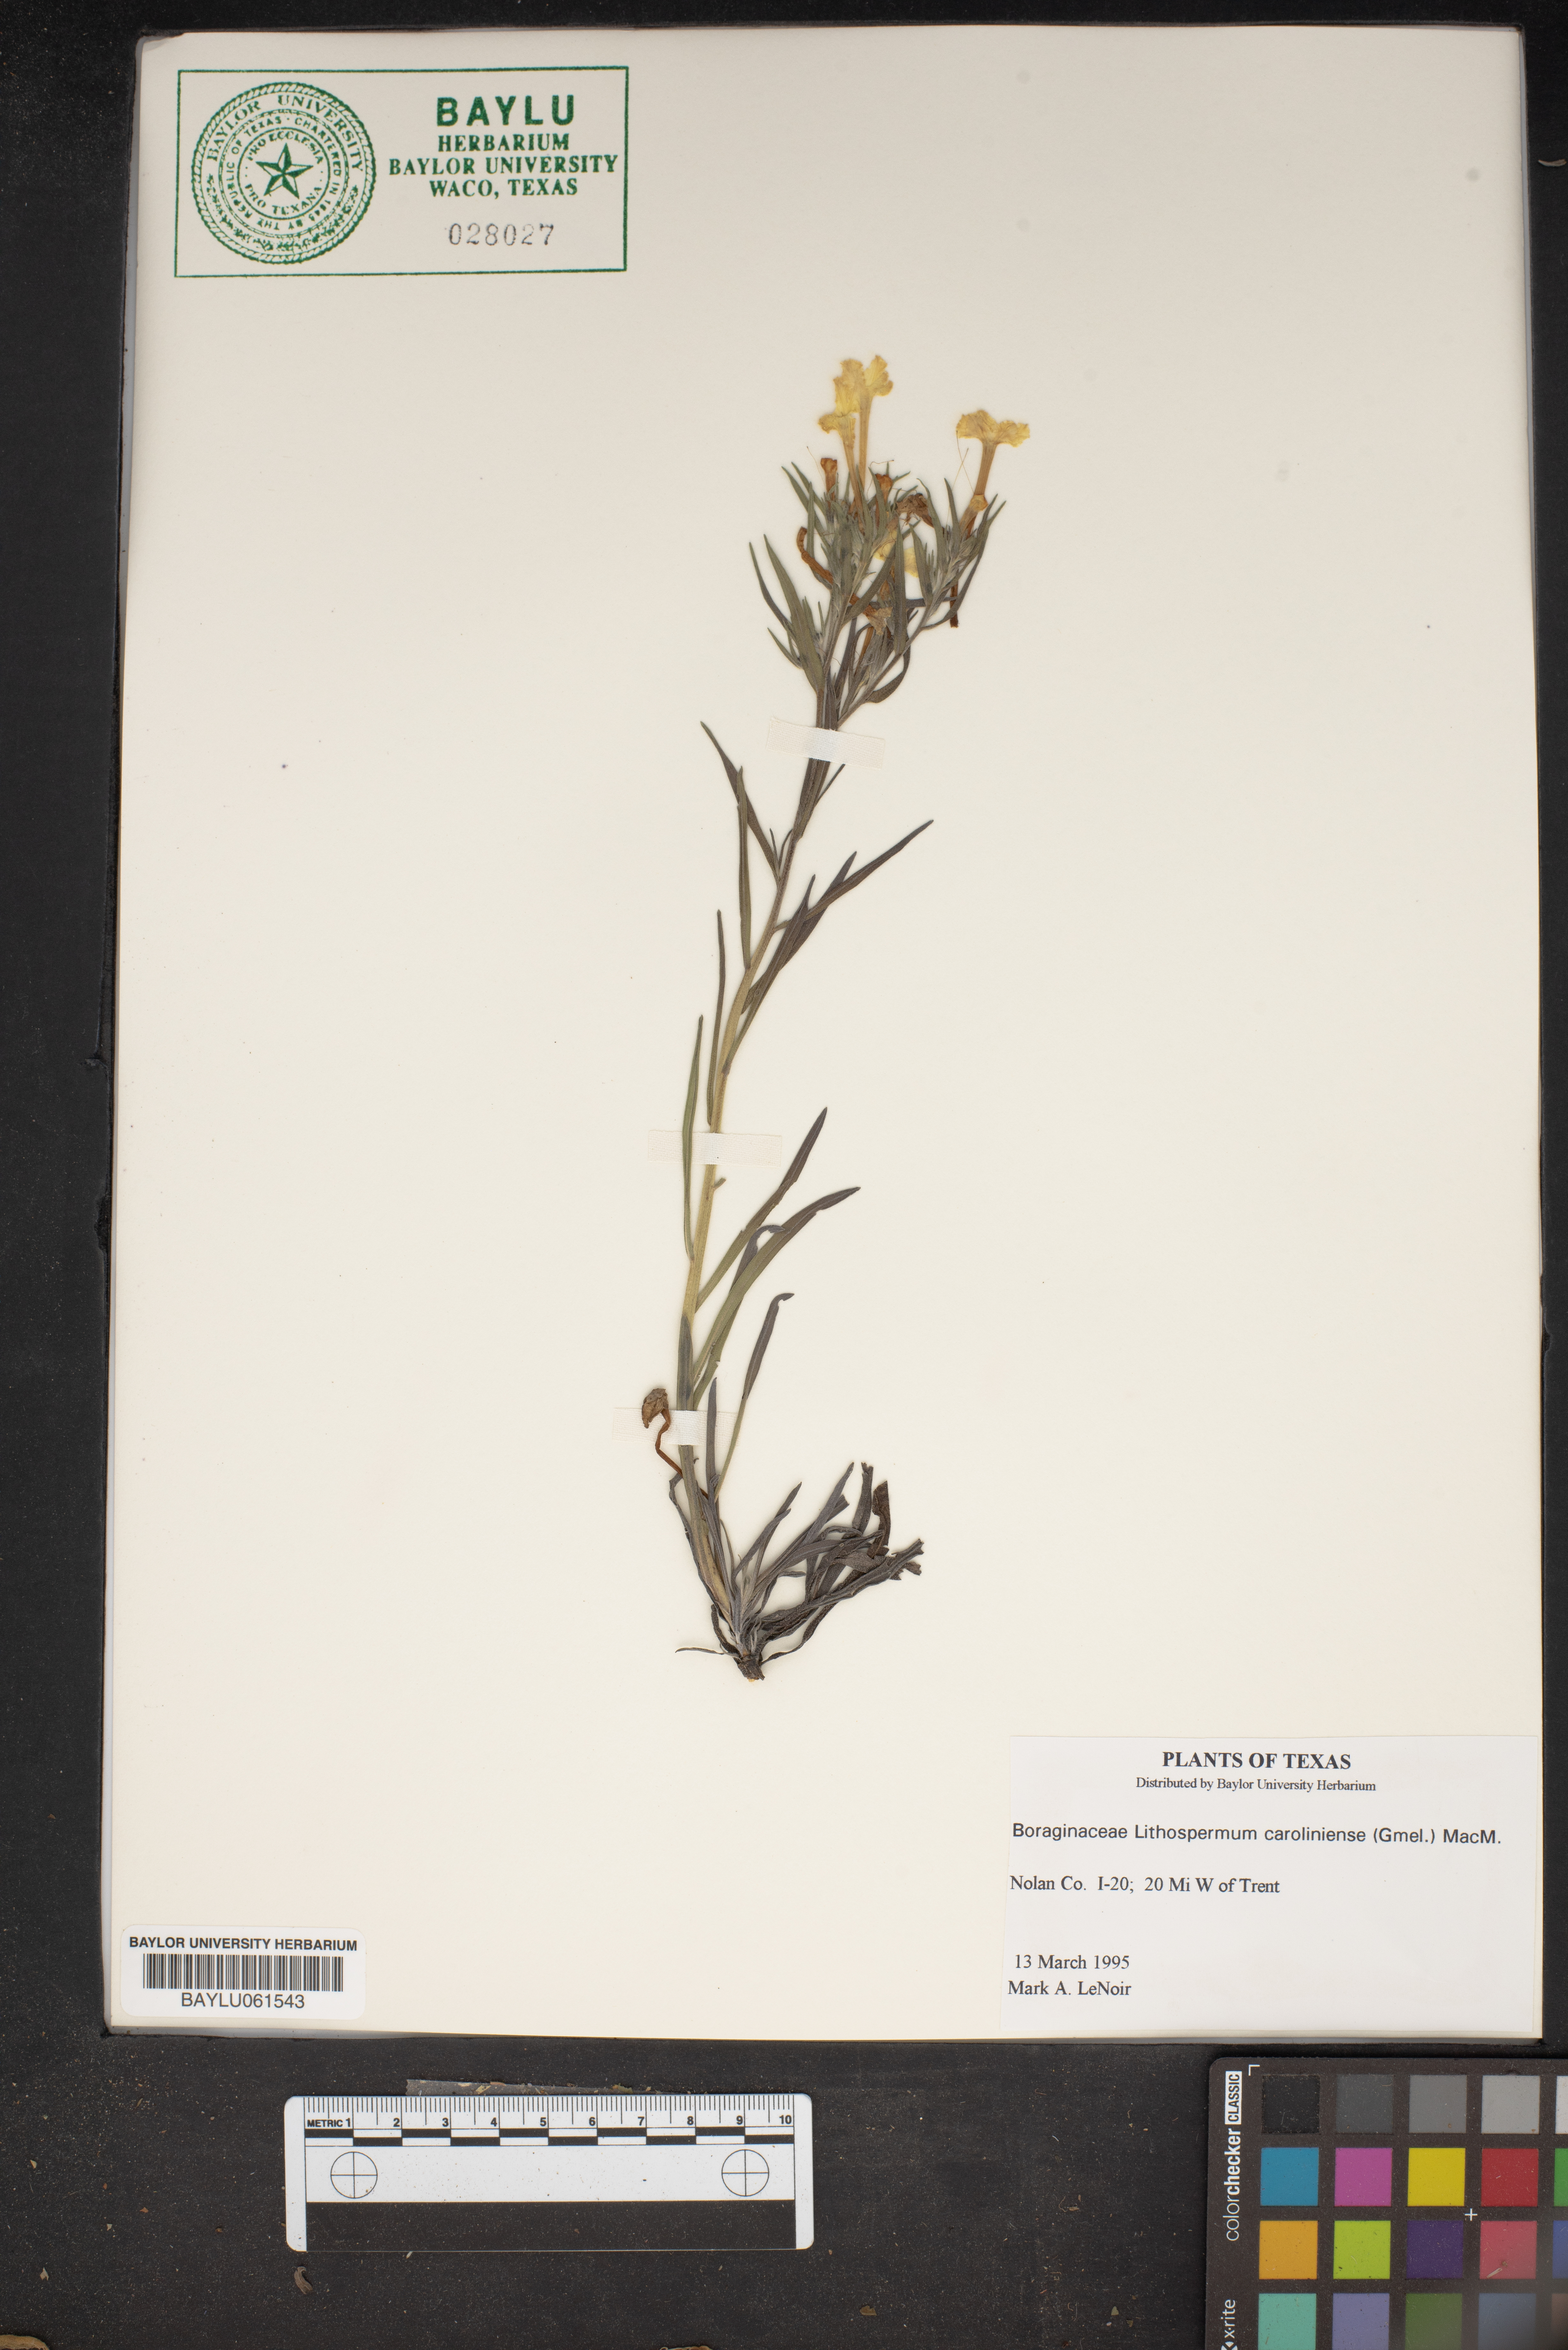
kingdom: Plantae
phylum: Tracheophyta
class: Magnoliopsida
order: Boraginales
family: Boraginaceae
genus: Lithospermum
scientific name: Lithospermum caroliniense
